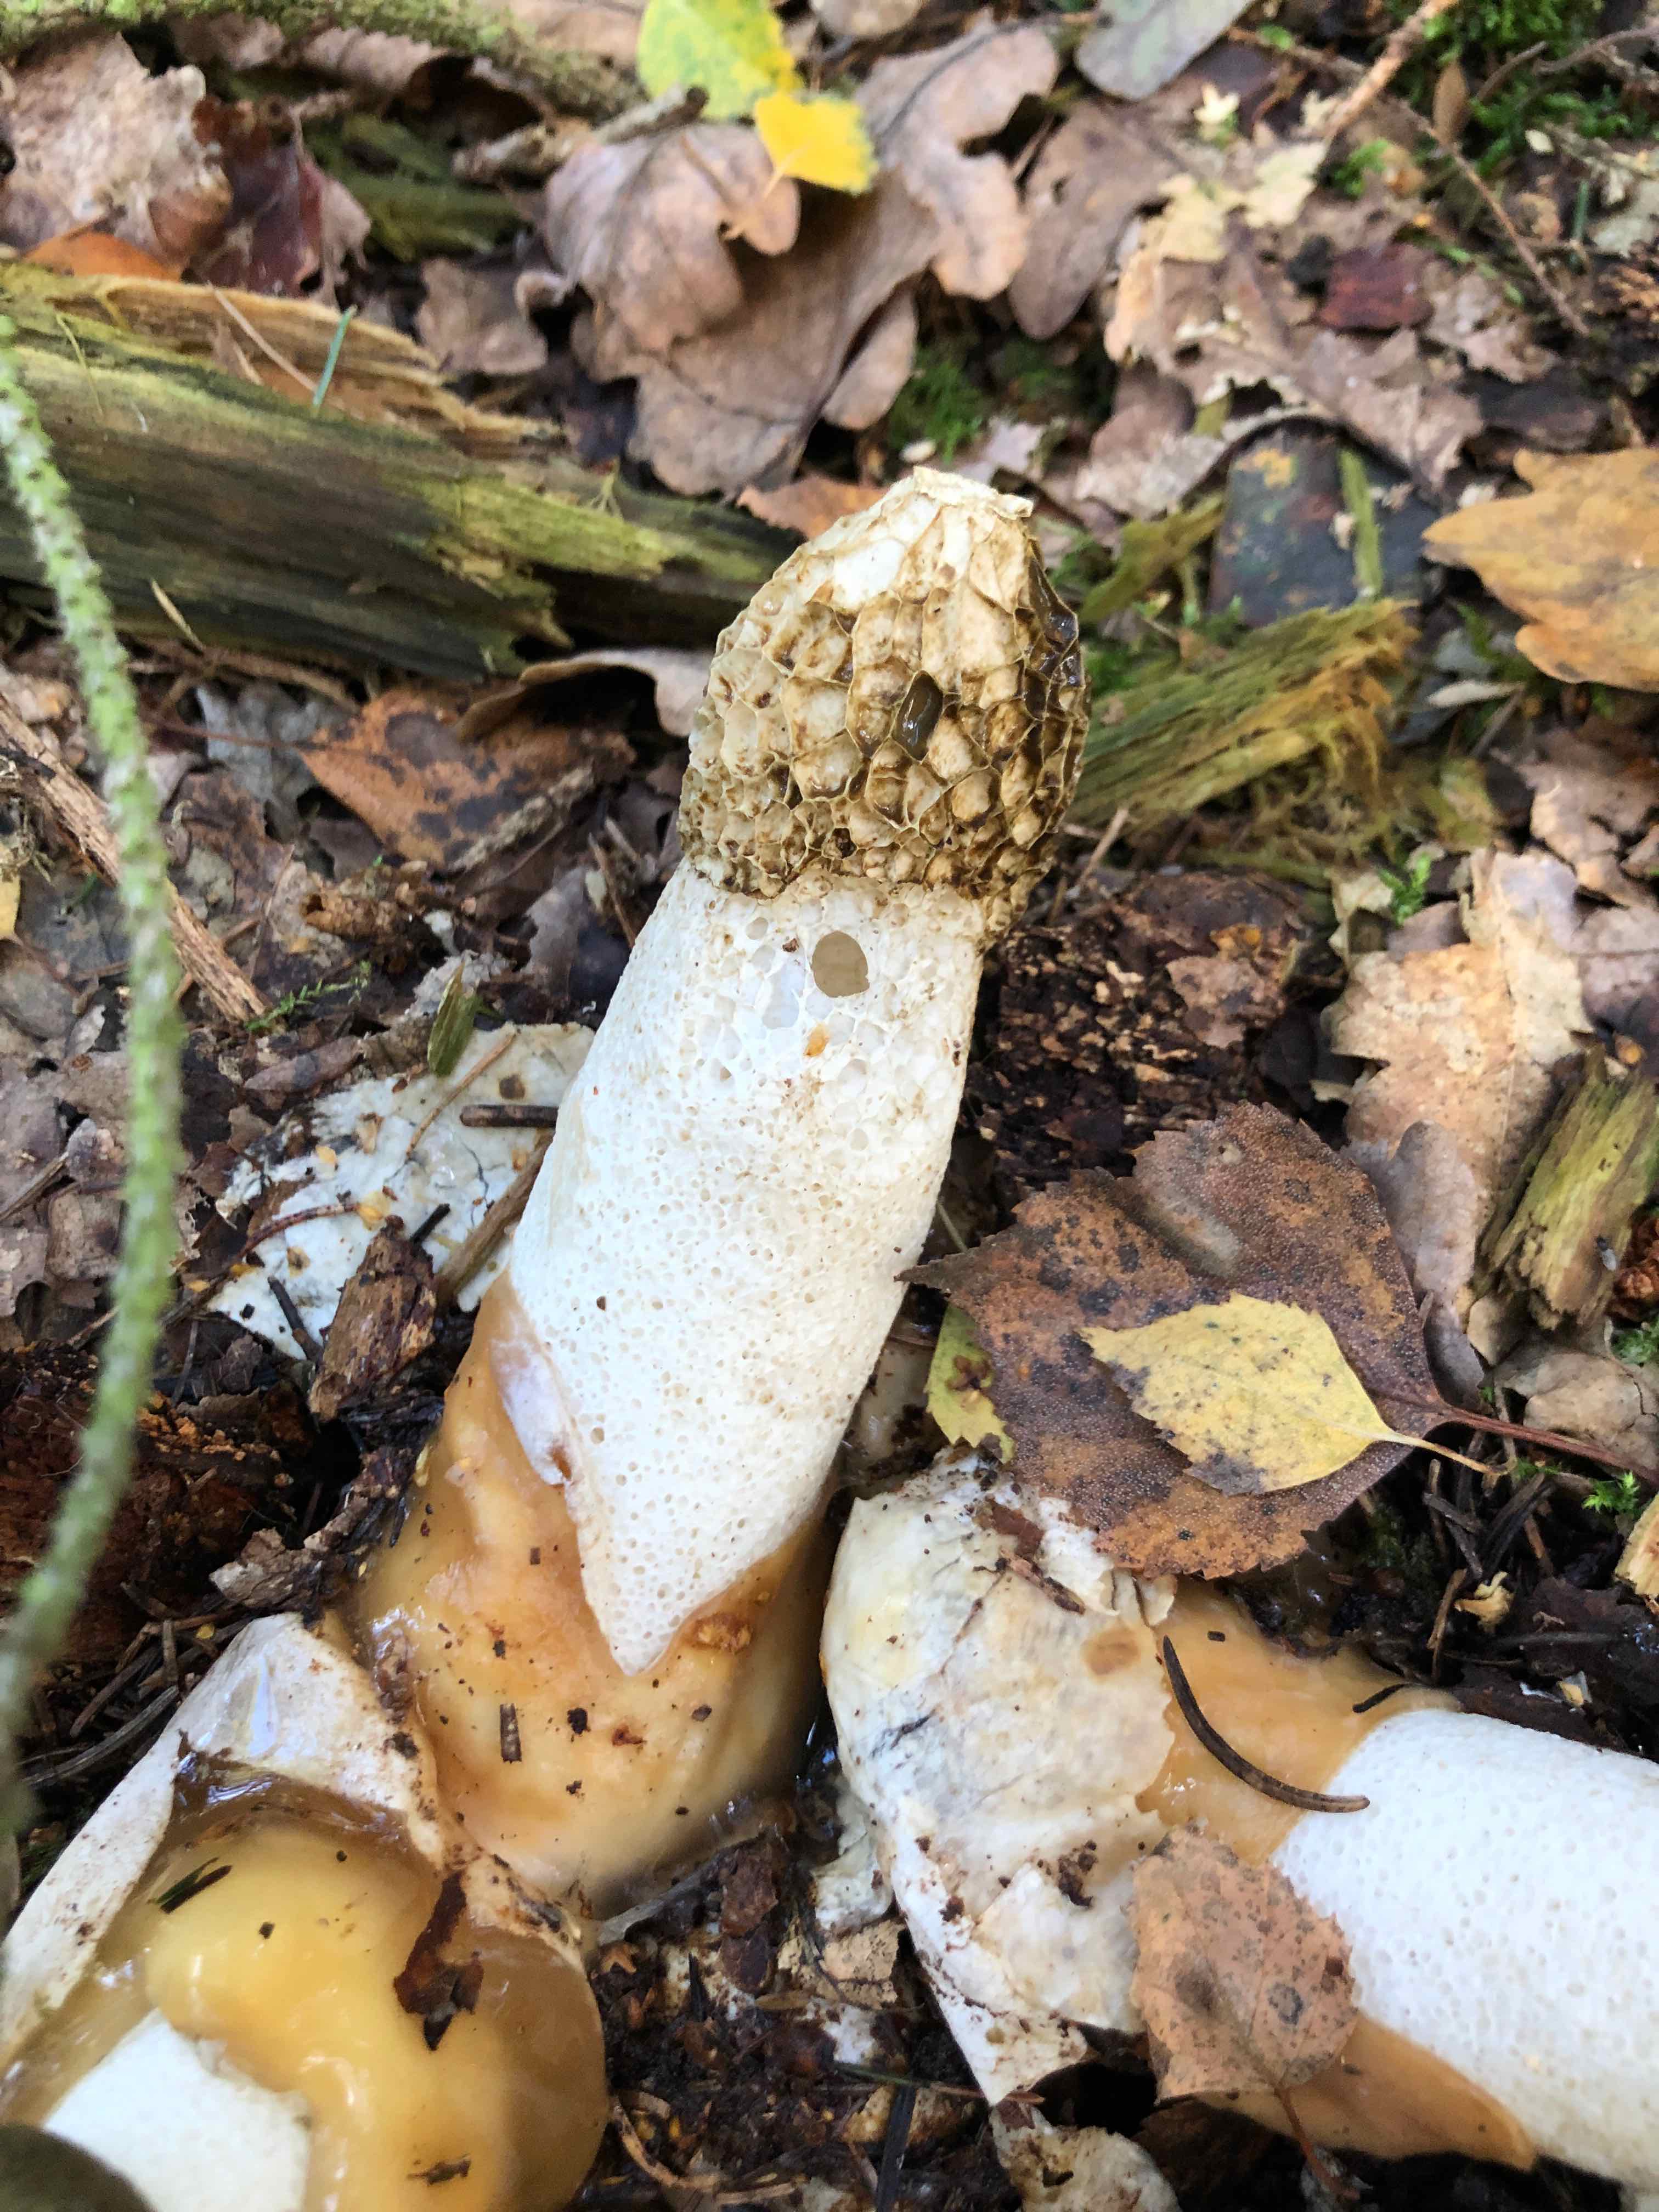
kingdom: Fungi
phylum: Basidiomycota
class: Agaricomycetes
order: Phallales
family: Phallaceae
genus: Phallus
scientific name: Phallus impudicus
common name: almindelig stinksvamp
